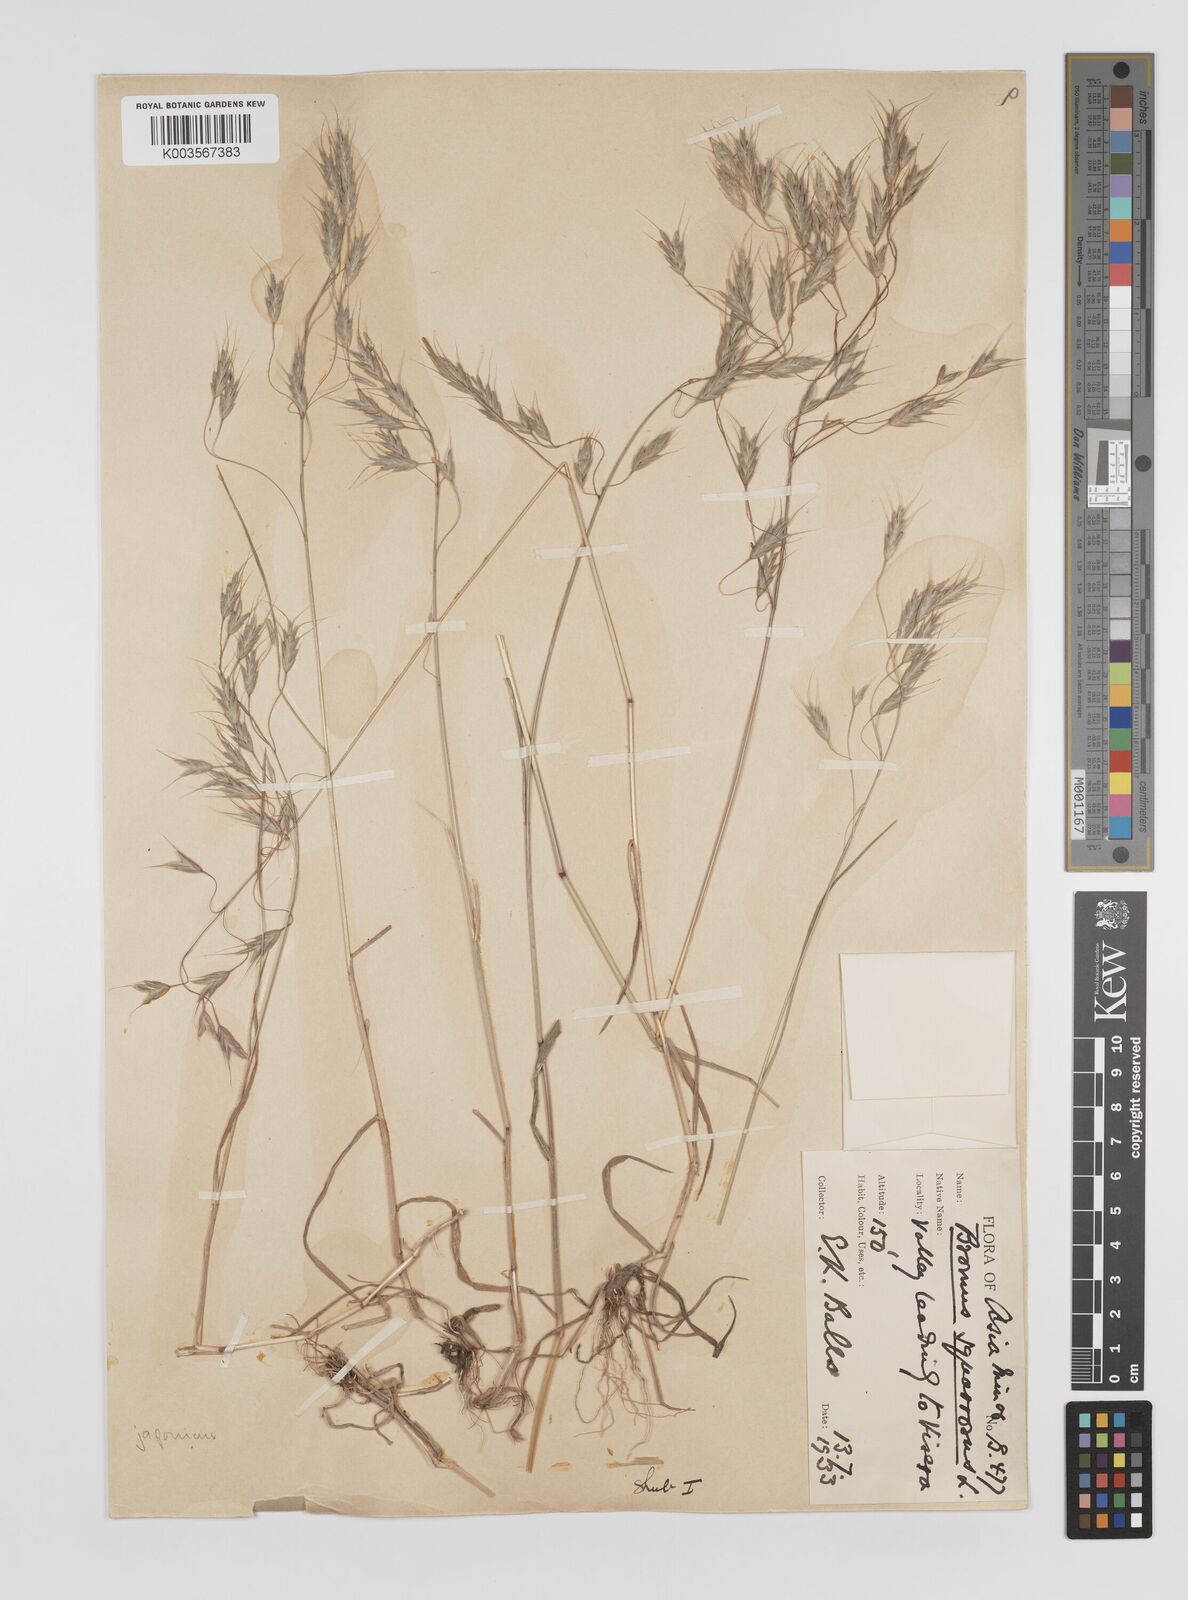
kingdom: Plantae
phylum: Tracheophyta
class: Liliopsida
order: Poales
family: Poaceae
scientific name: Poaceae
